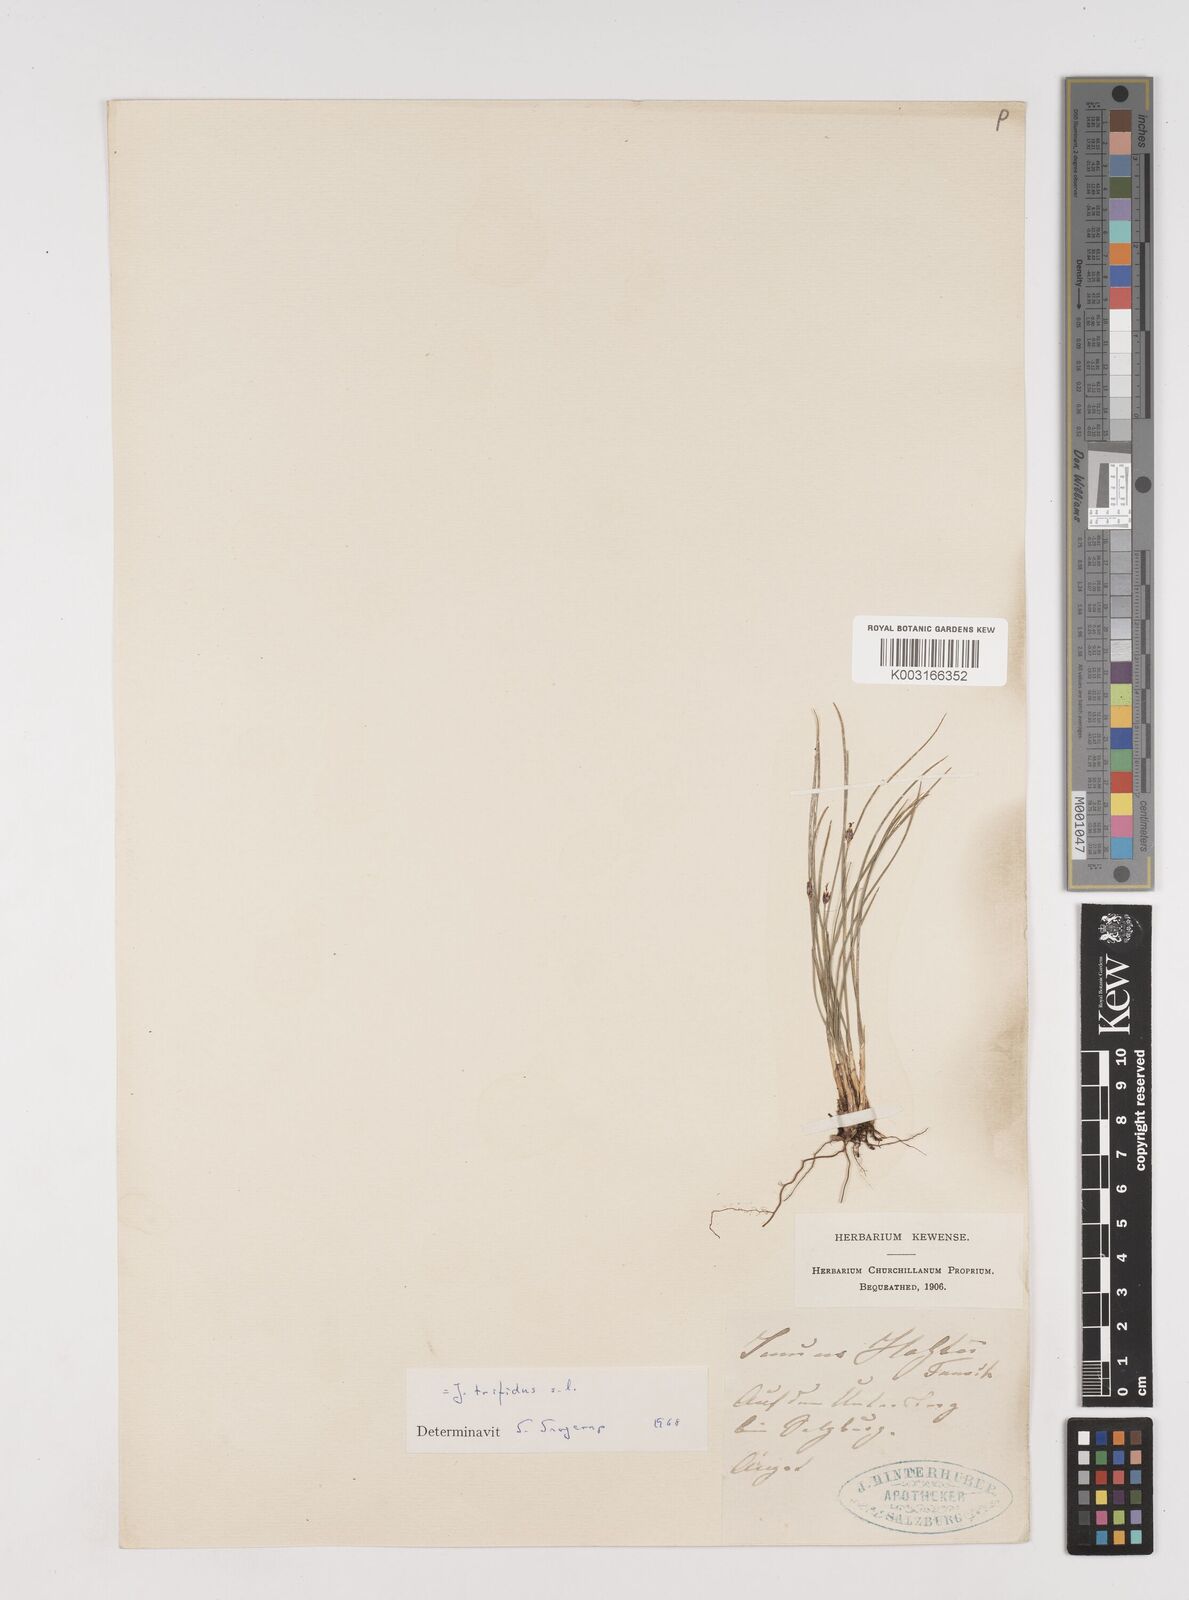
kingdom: Plantae
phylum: Tracheophyta
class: Liliopsida
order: Poales
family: Juncaceae
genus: Oreojuncus
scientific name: Oreojuncus trifidus
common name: Highland rush
